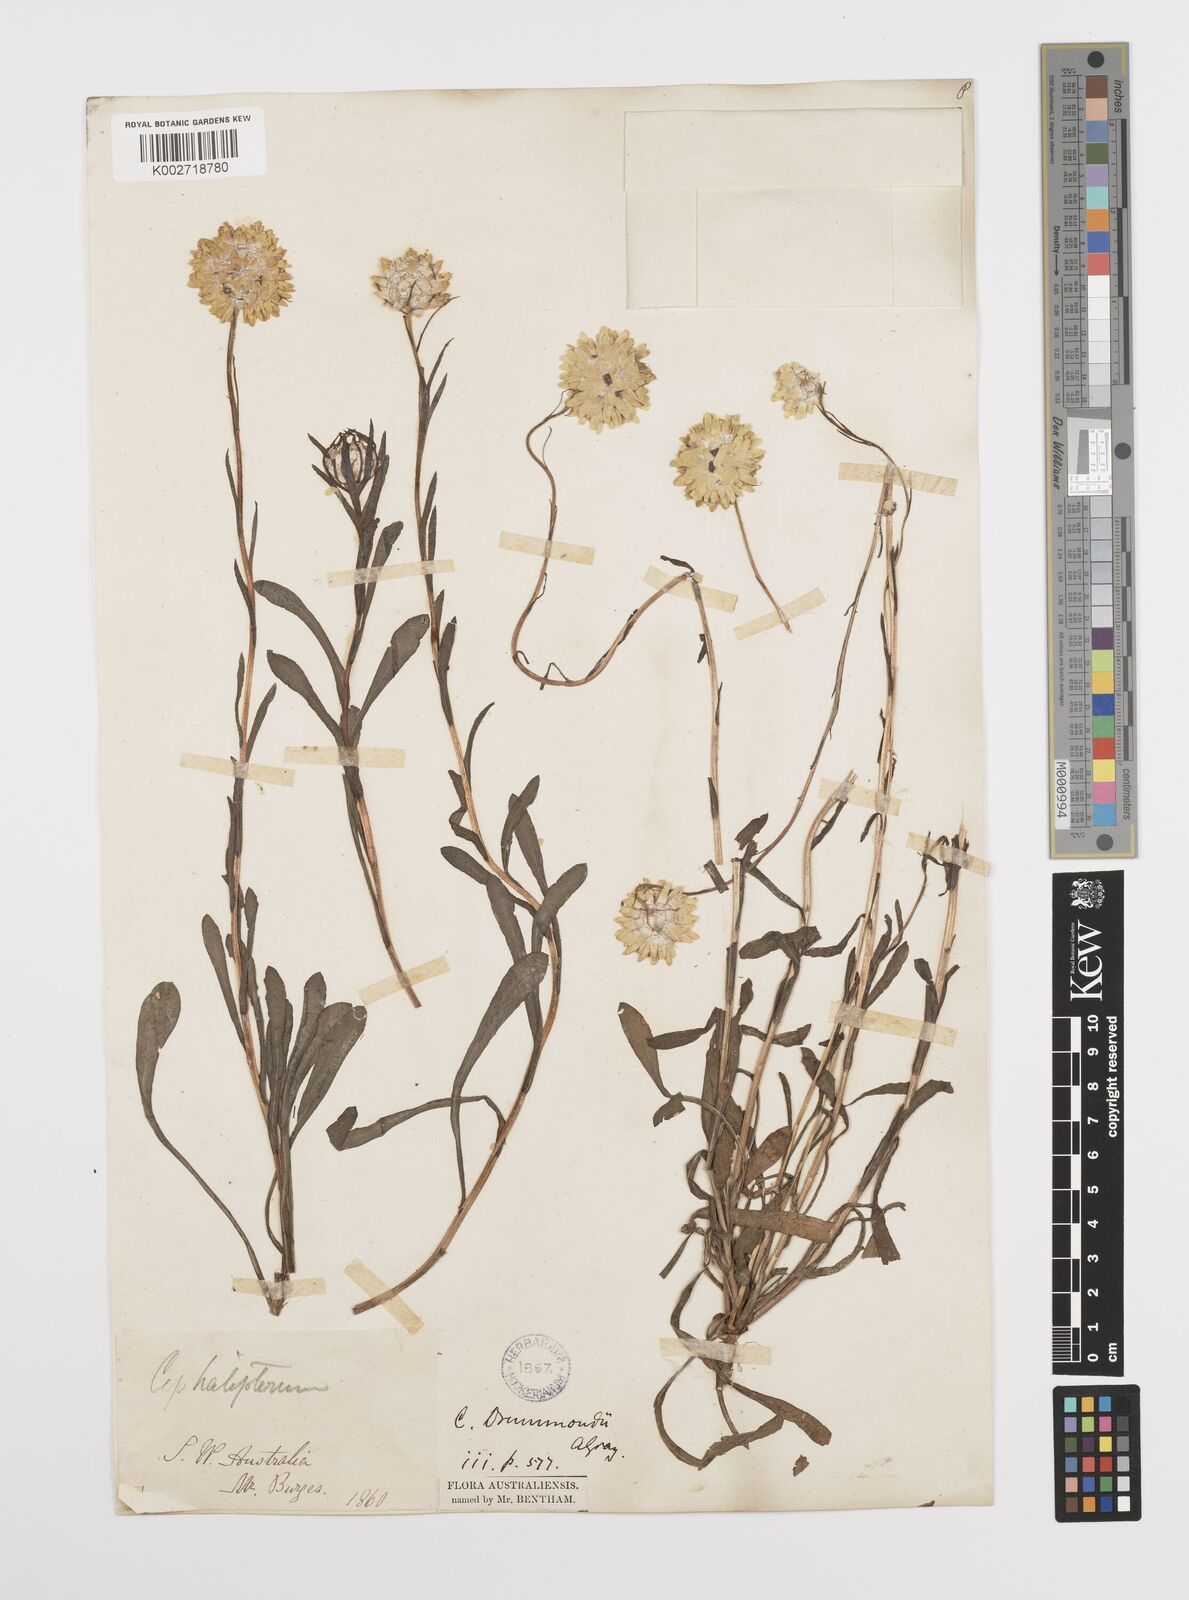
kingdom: Plantae
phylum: Tracheophyta
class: Magnoliopsida
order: Asterales
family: Asteraceae
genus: Cephalipterum
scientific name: Cephalipterum drummondii
